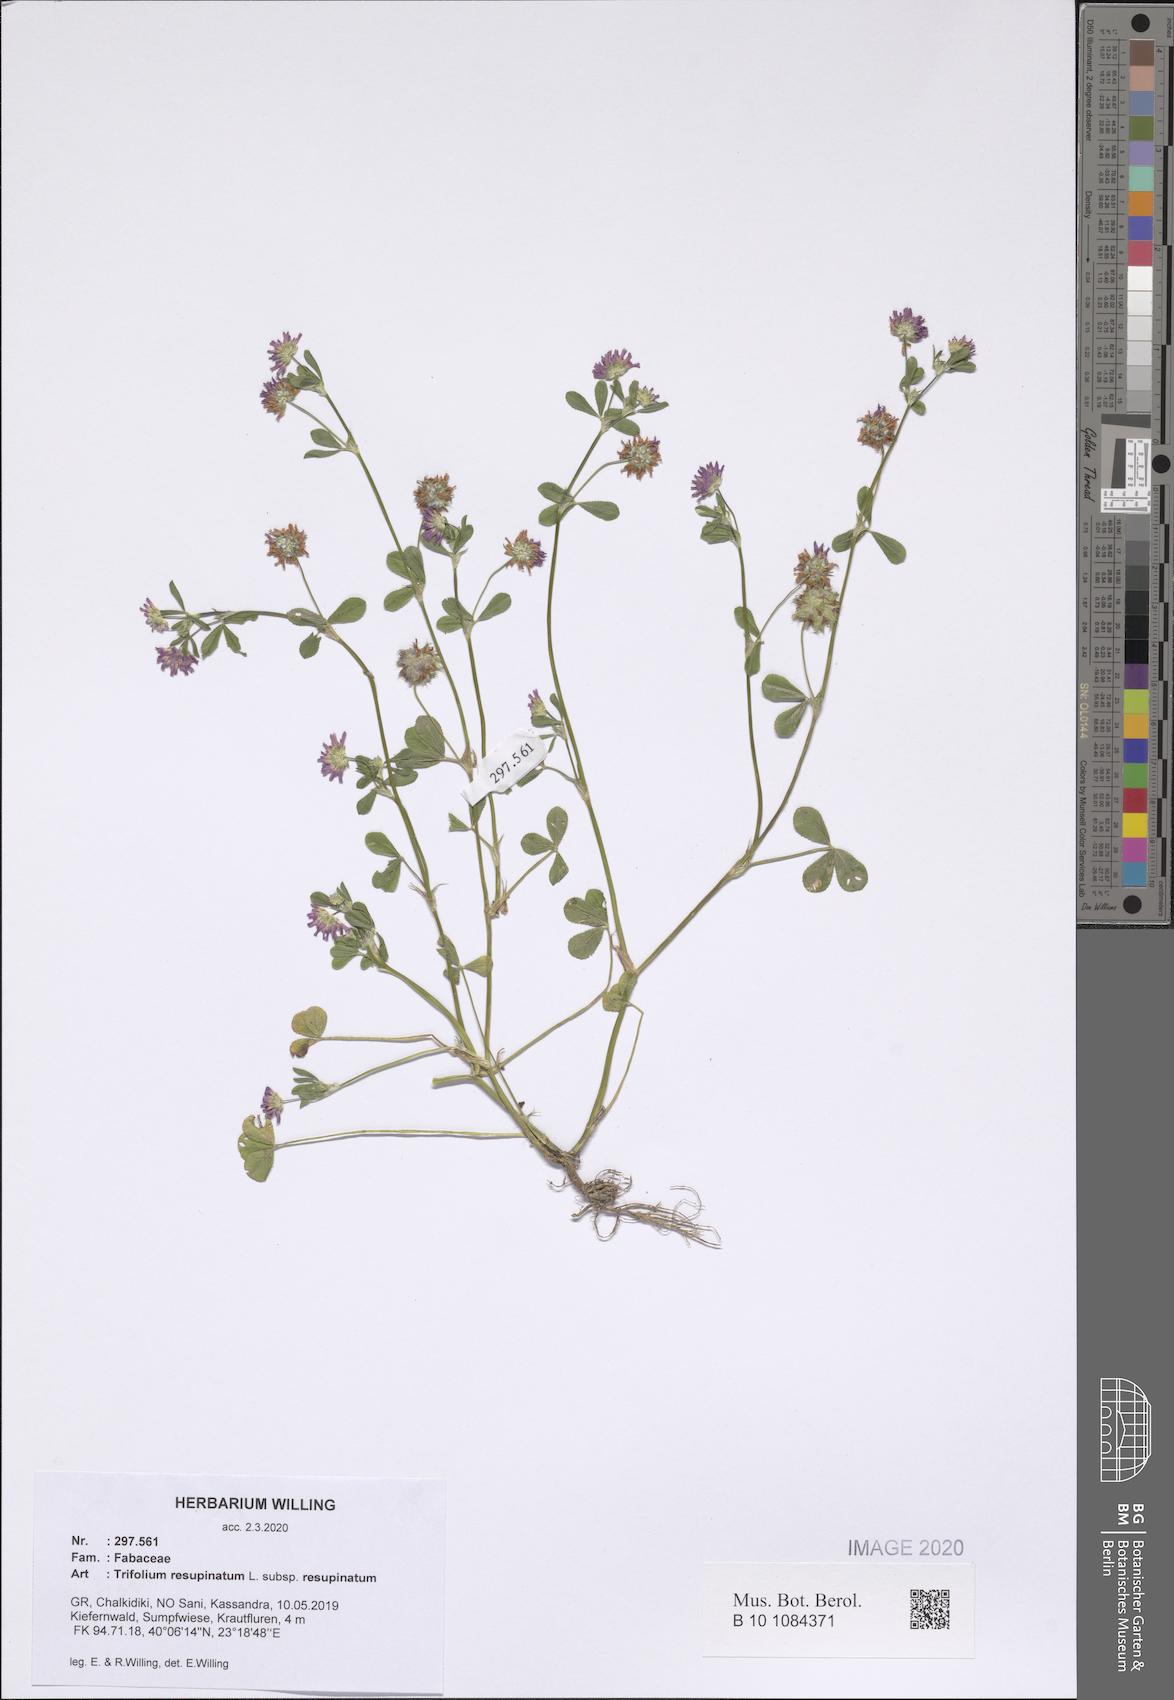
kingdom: Plantae
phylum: Tracheophyta
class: Magnoliopsida
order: Fabales
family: Fabaceae
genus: Trifolium
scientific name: Trifolium resupinatum
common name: Reversed clover
